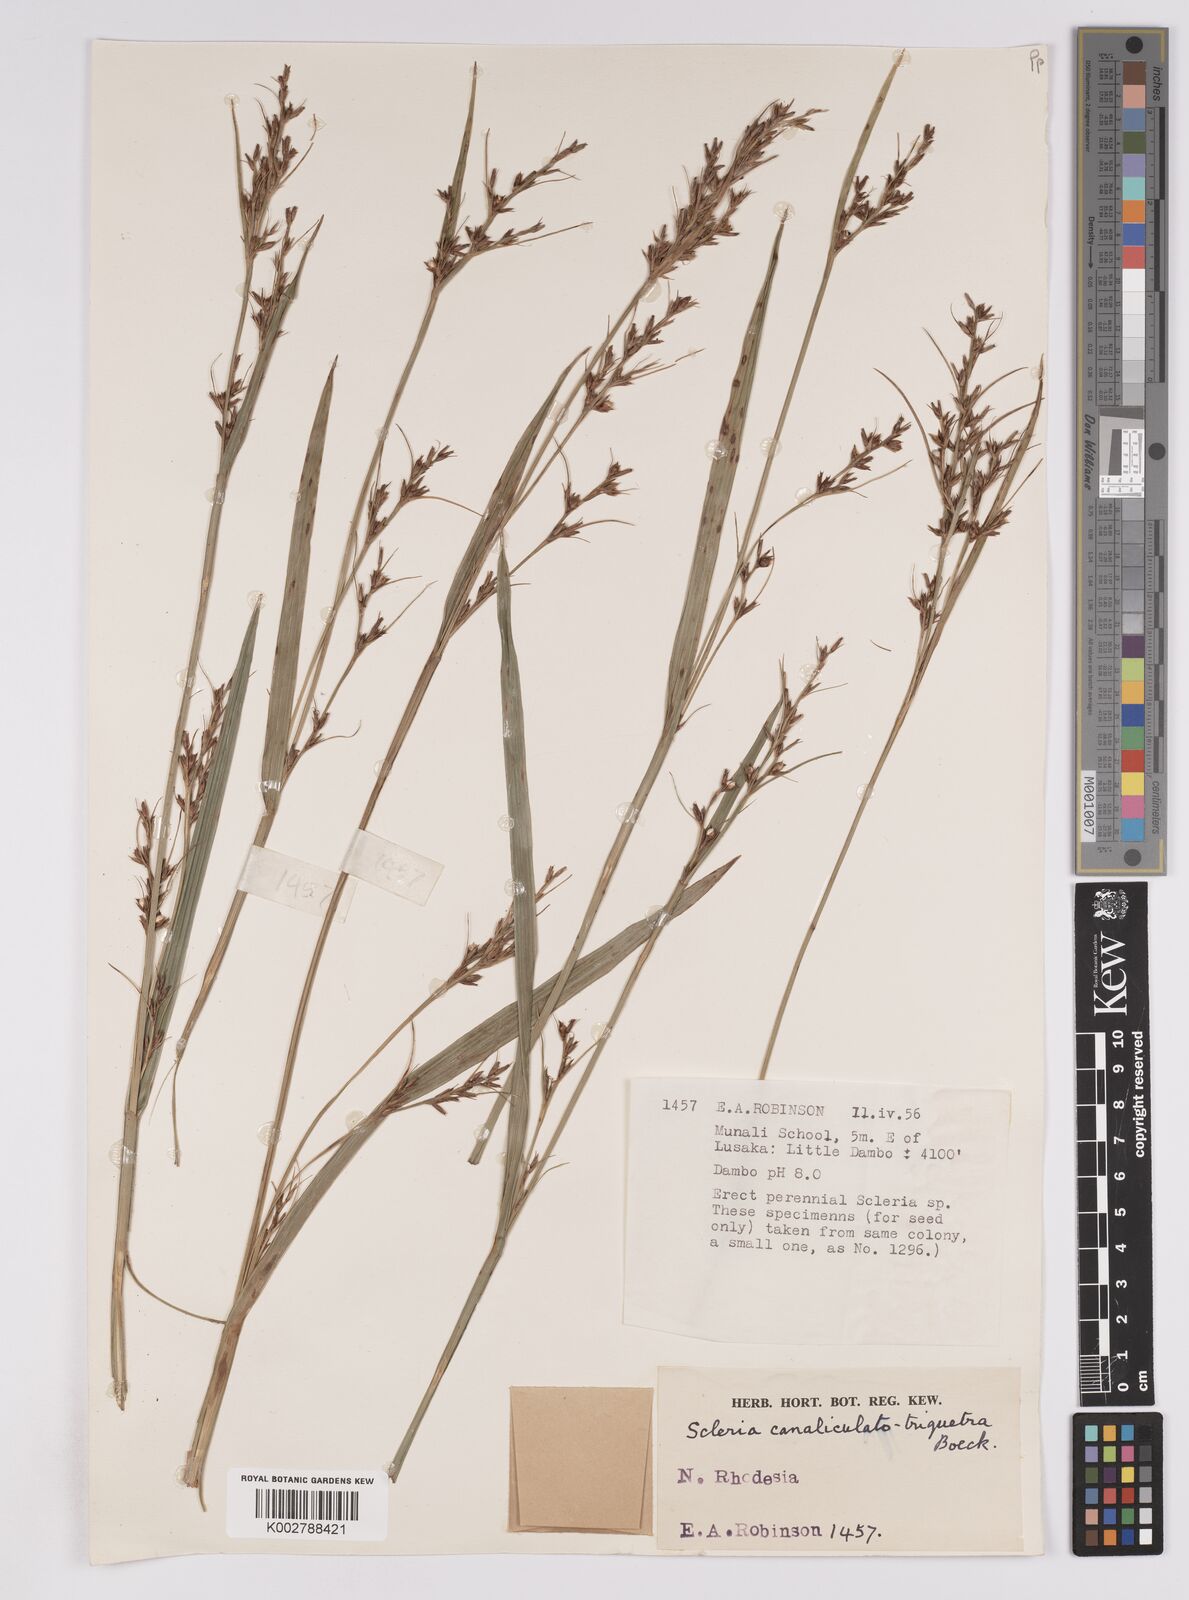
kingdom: Plantae
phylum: Tracheophyta
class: Liliopsida
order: Poales
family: Cyperaceae
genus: Scleria
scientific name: Scleria lagoensis
